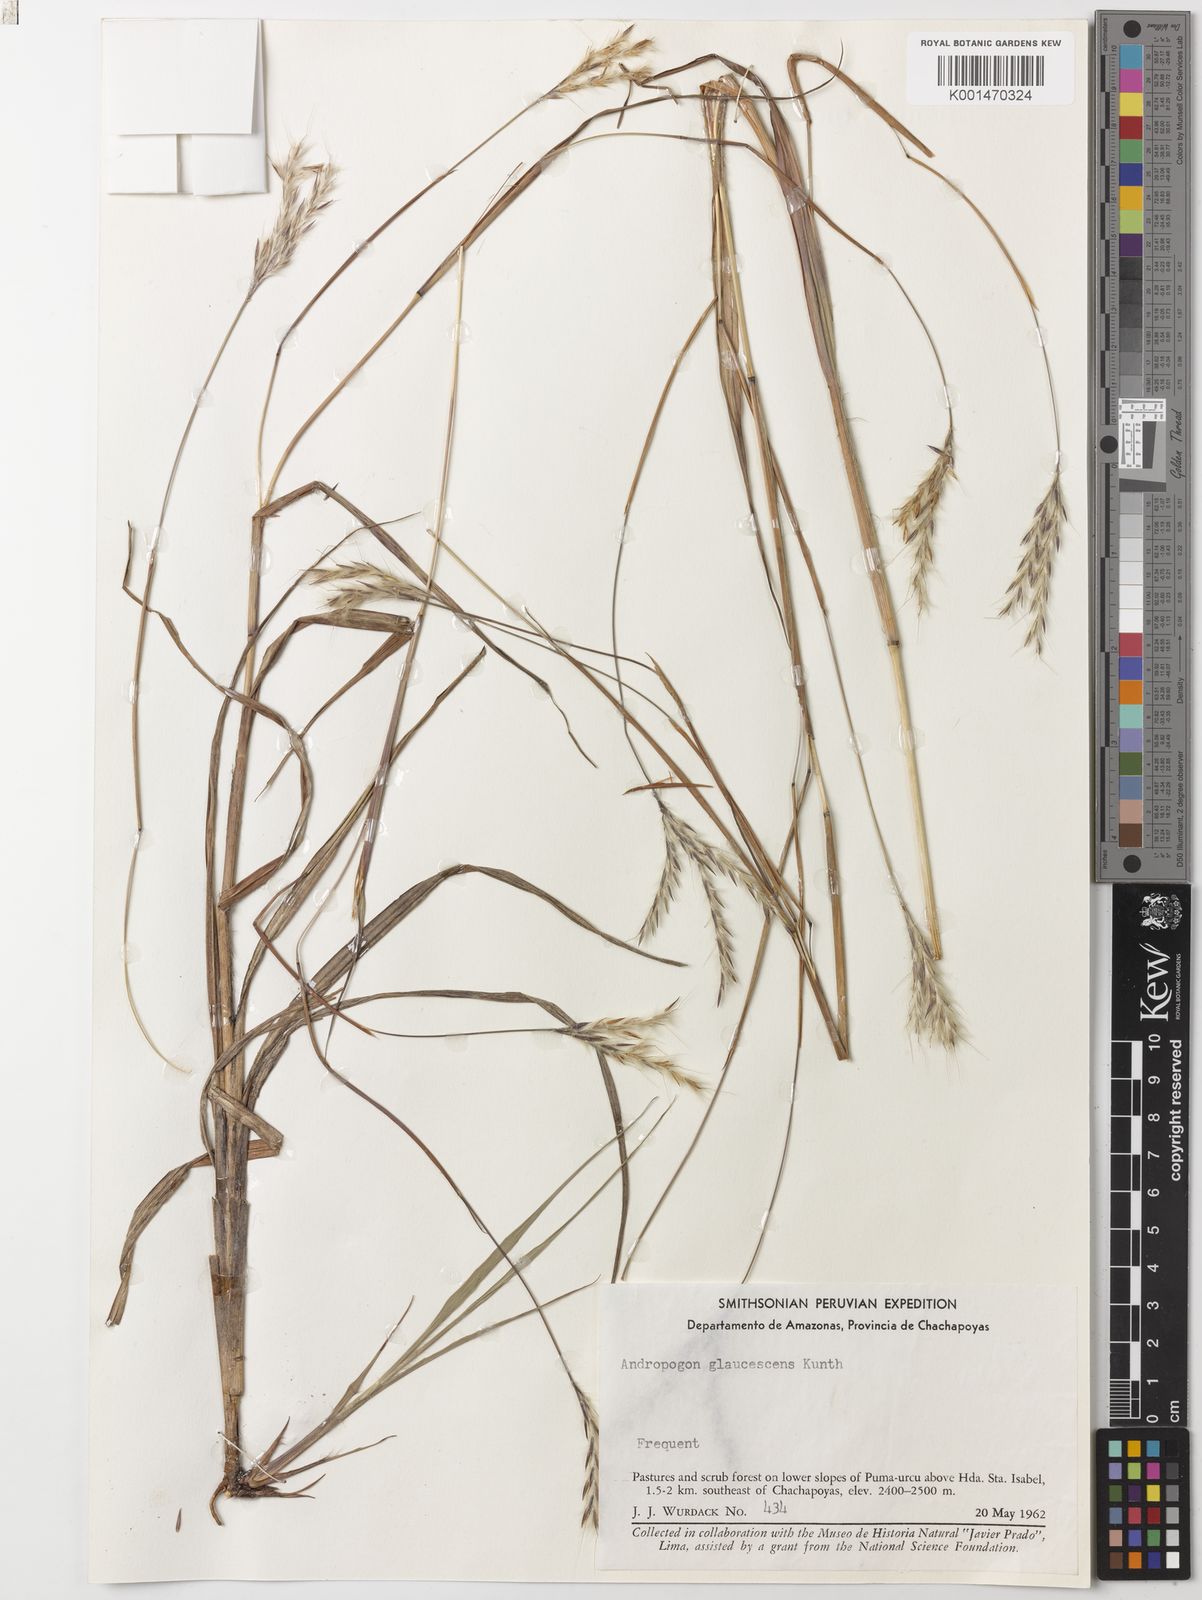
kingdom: Plantae
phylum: Tracheophyta
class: Liliopsida
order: Poales
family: Poaceae
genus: Andropogon
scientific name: Andropogon glaucescens
